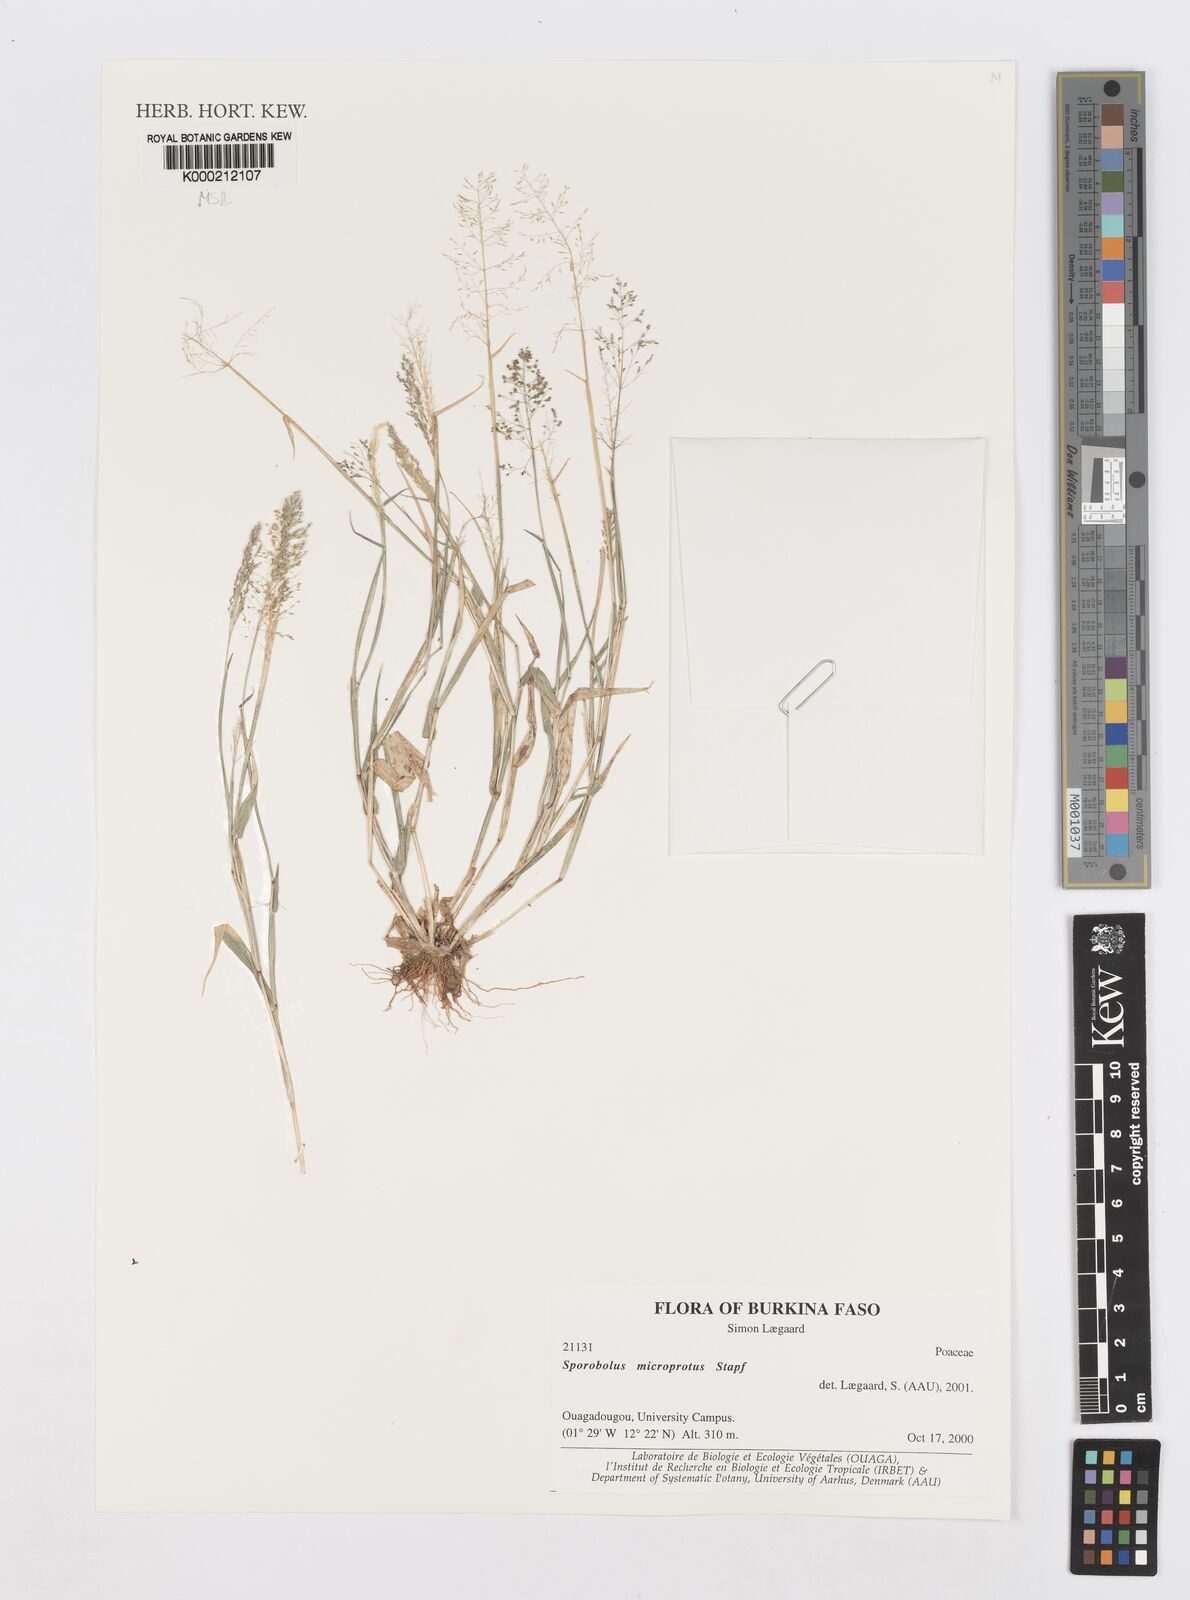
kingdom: Plantae
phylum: Tracheophyta
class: Liliopsida
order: Poales
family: Poaceae
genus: Sporobolus
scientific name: Sporobolus microprotus
